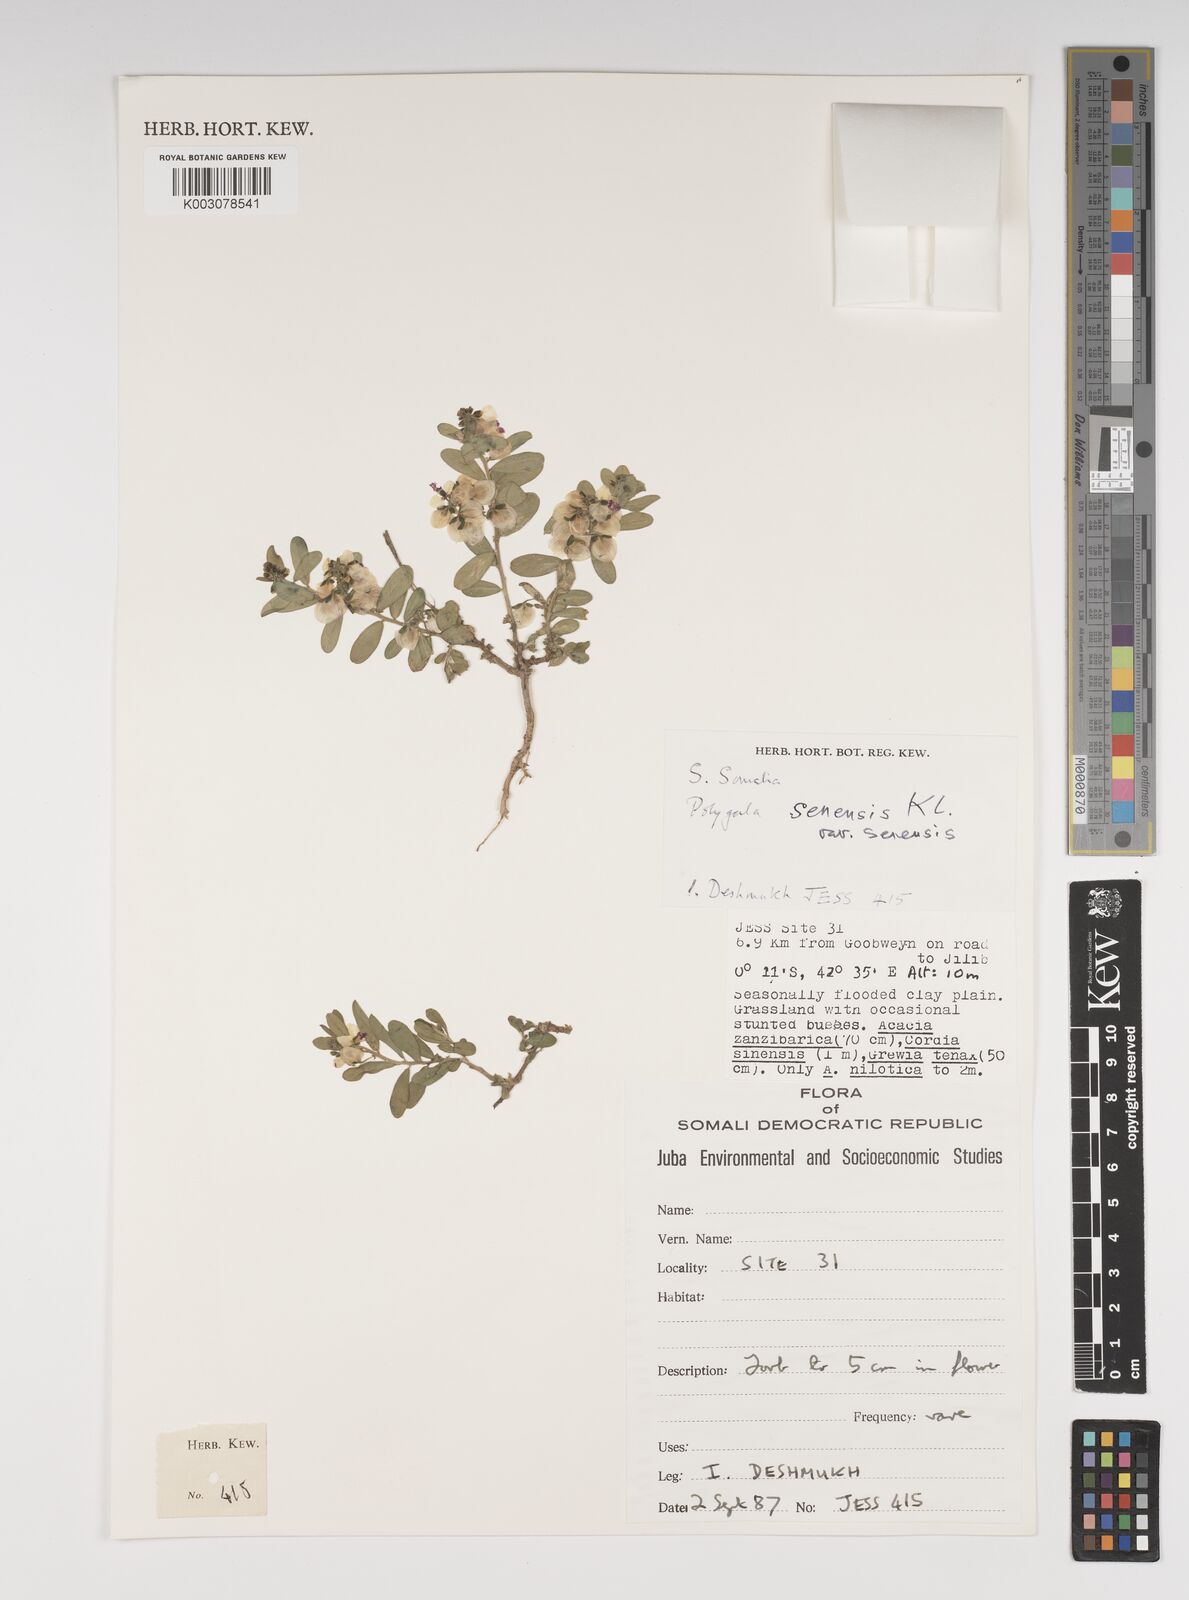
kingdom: Plantae
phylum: Tracheophyta
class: Magnoliopsida
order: Fabales
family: Polygalaceae
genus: Polygala
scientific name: Polygala senensis
